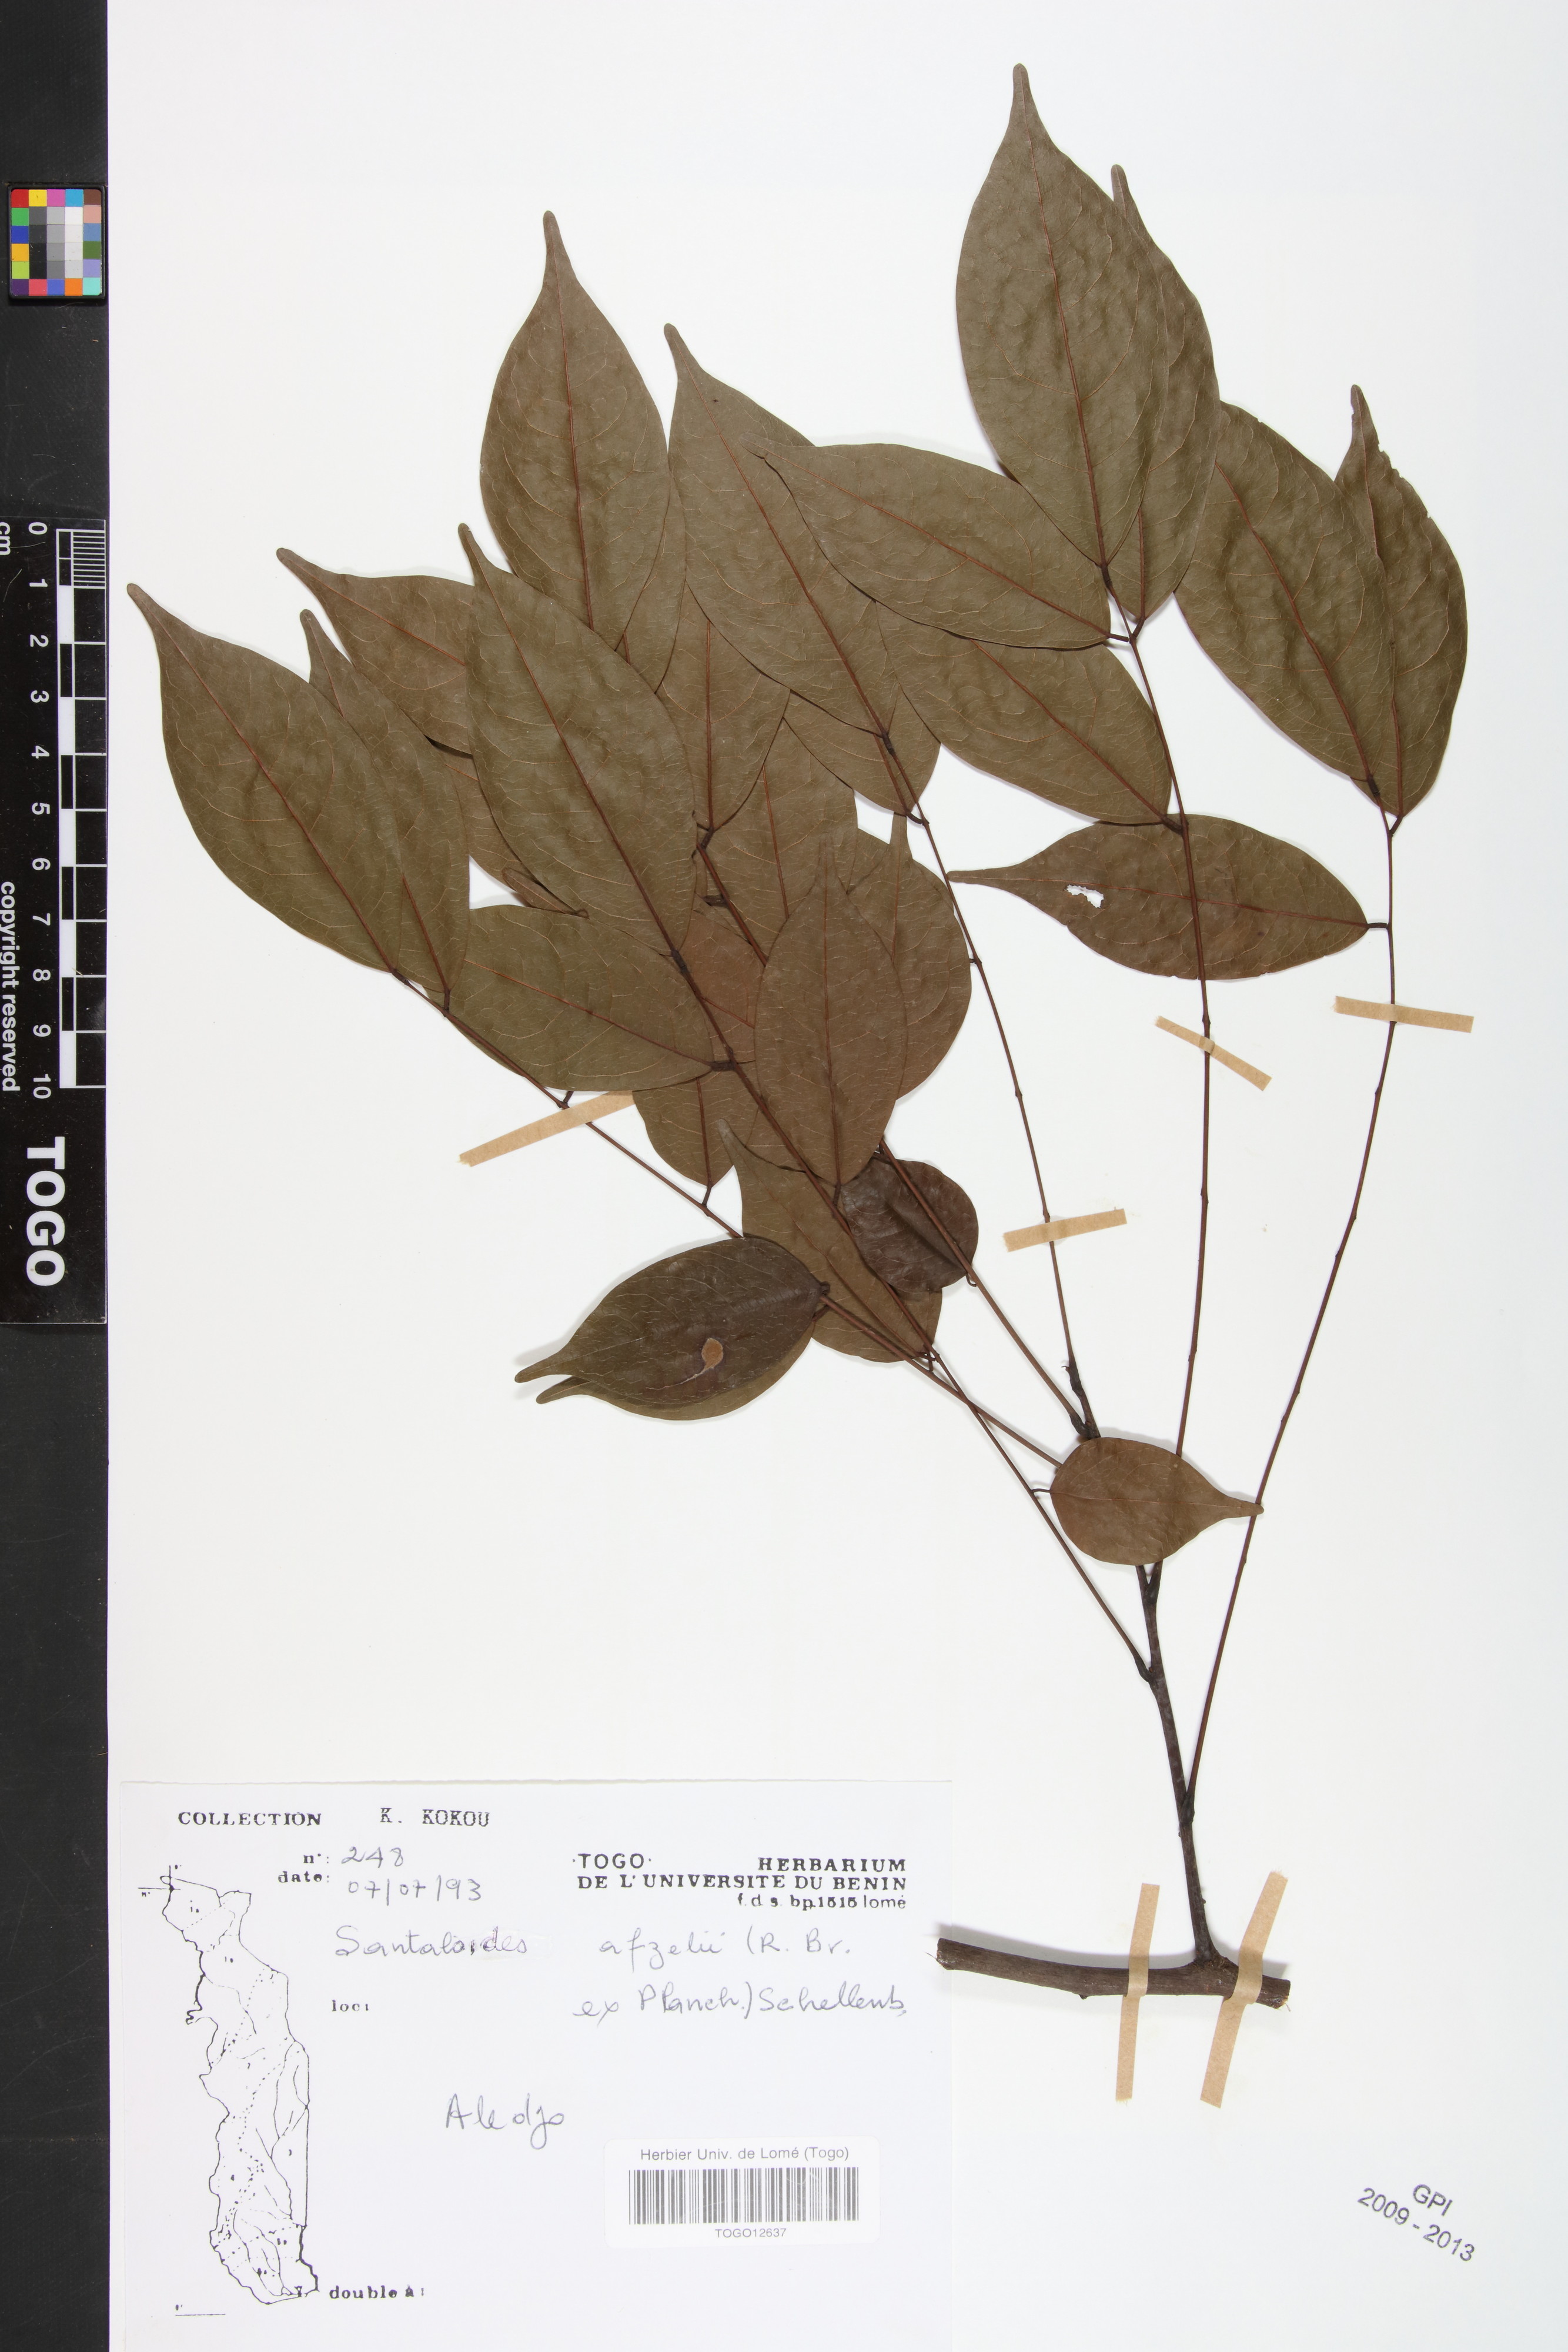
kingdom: Plantae
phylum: Tracheophyta
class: Magnoliopsida
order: Oxalidales
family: Connaraceae
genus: Rourea
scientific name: Rourea minor
